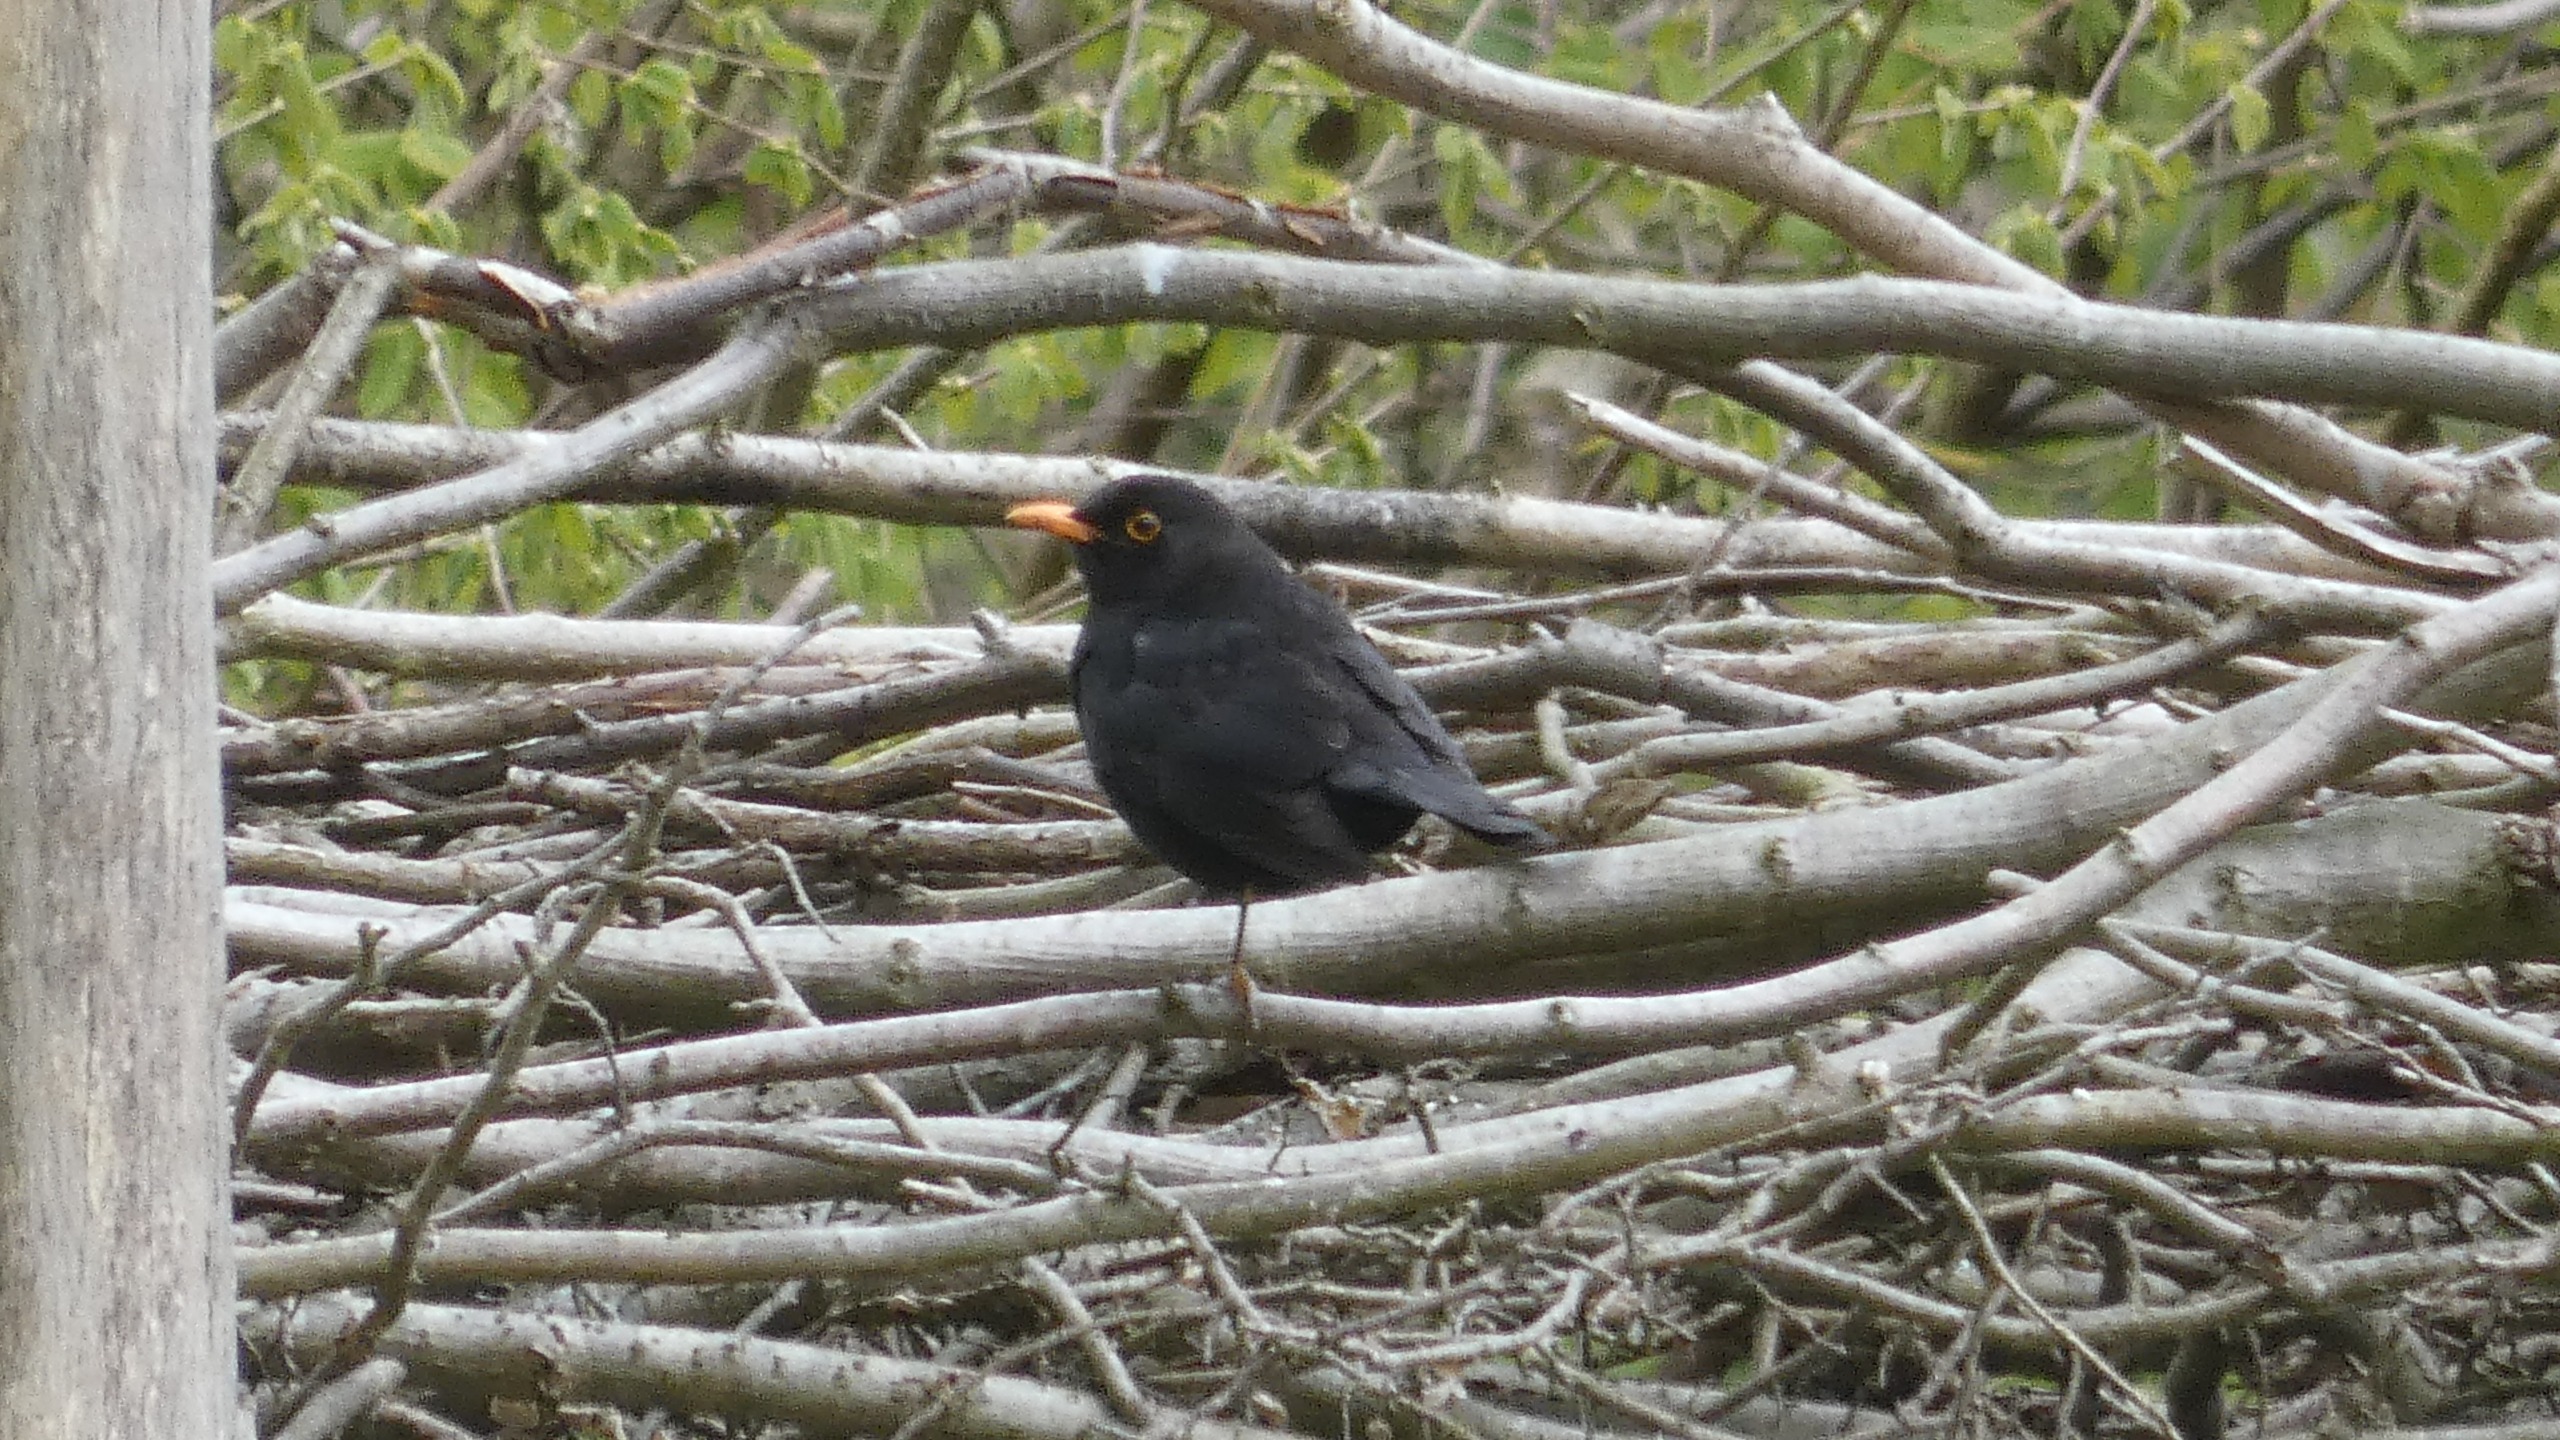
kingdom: Animalia
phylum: Chordata
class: Aves
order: Passeriformes
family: Turdidae
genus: Turdus
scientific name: Turdus merula
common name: Solsort
